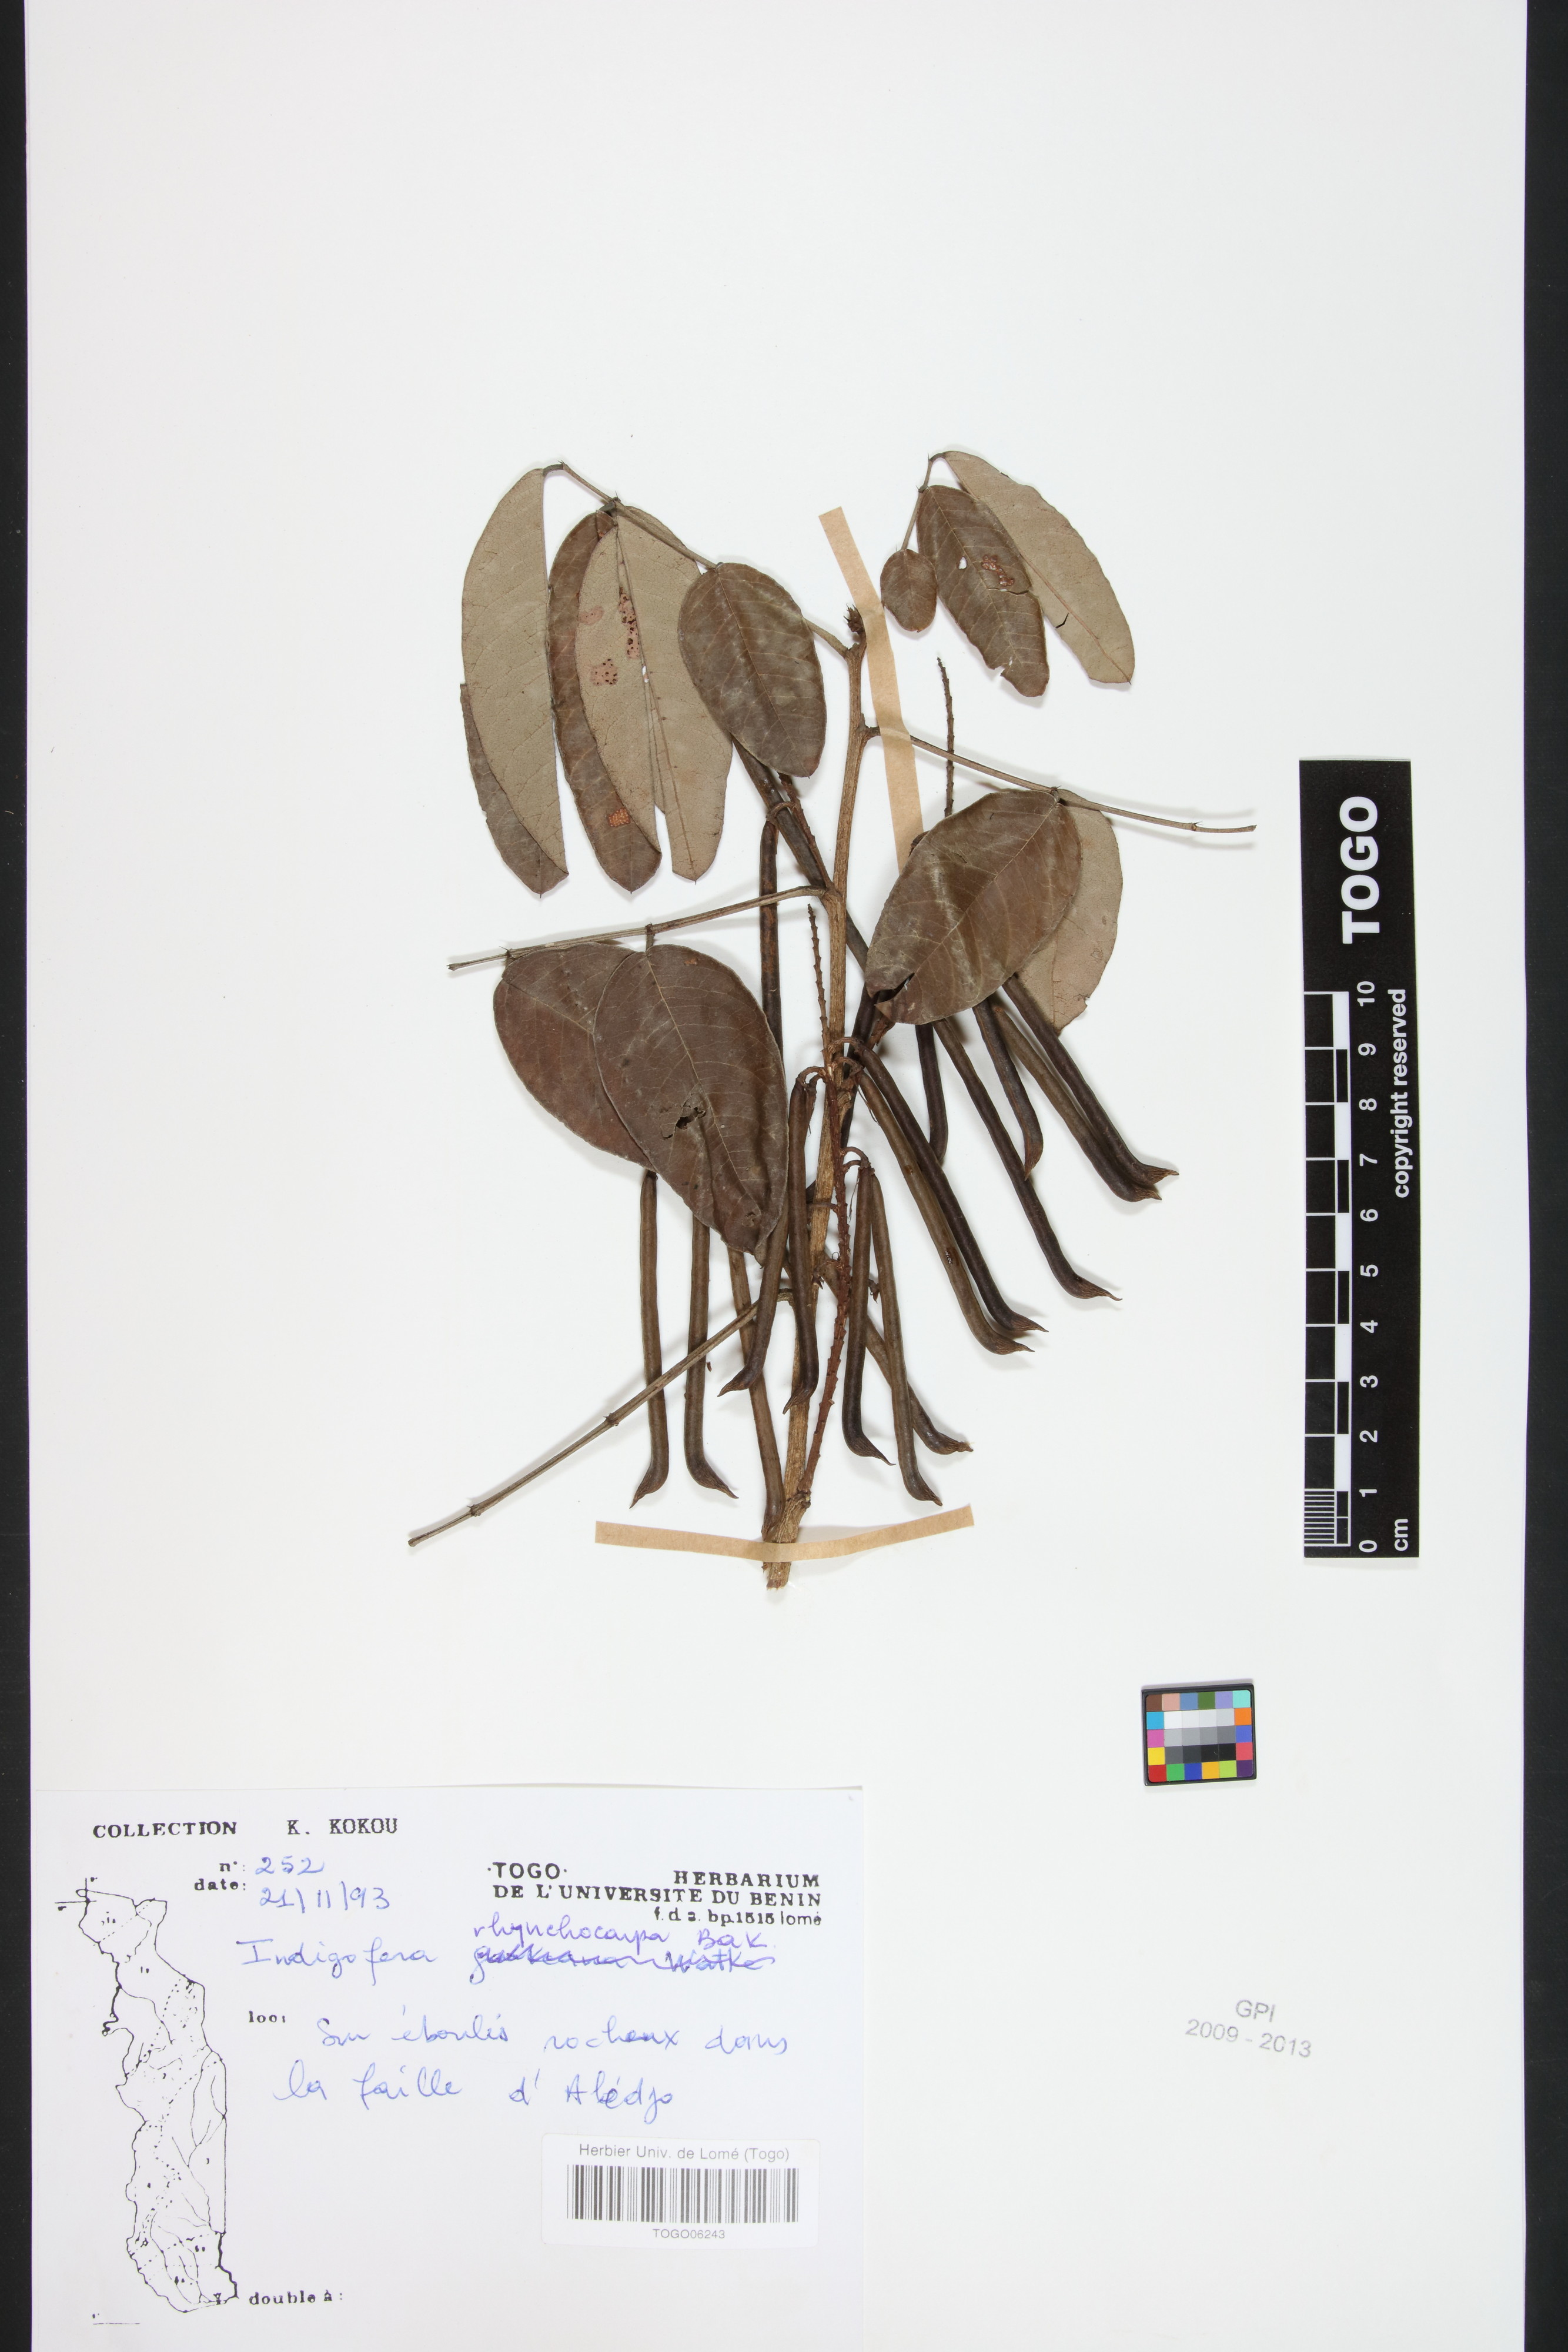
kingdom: Plantae
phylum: Tracheophyta
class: Magnoliopsida
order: Fabales
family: Fabaceae
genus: Indigofera
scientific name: Indigofera rhynchocarpa
